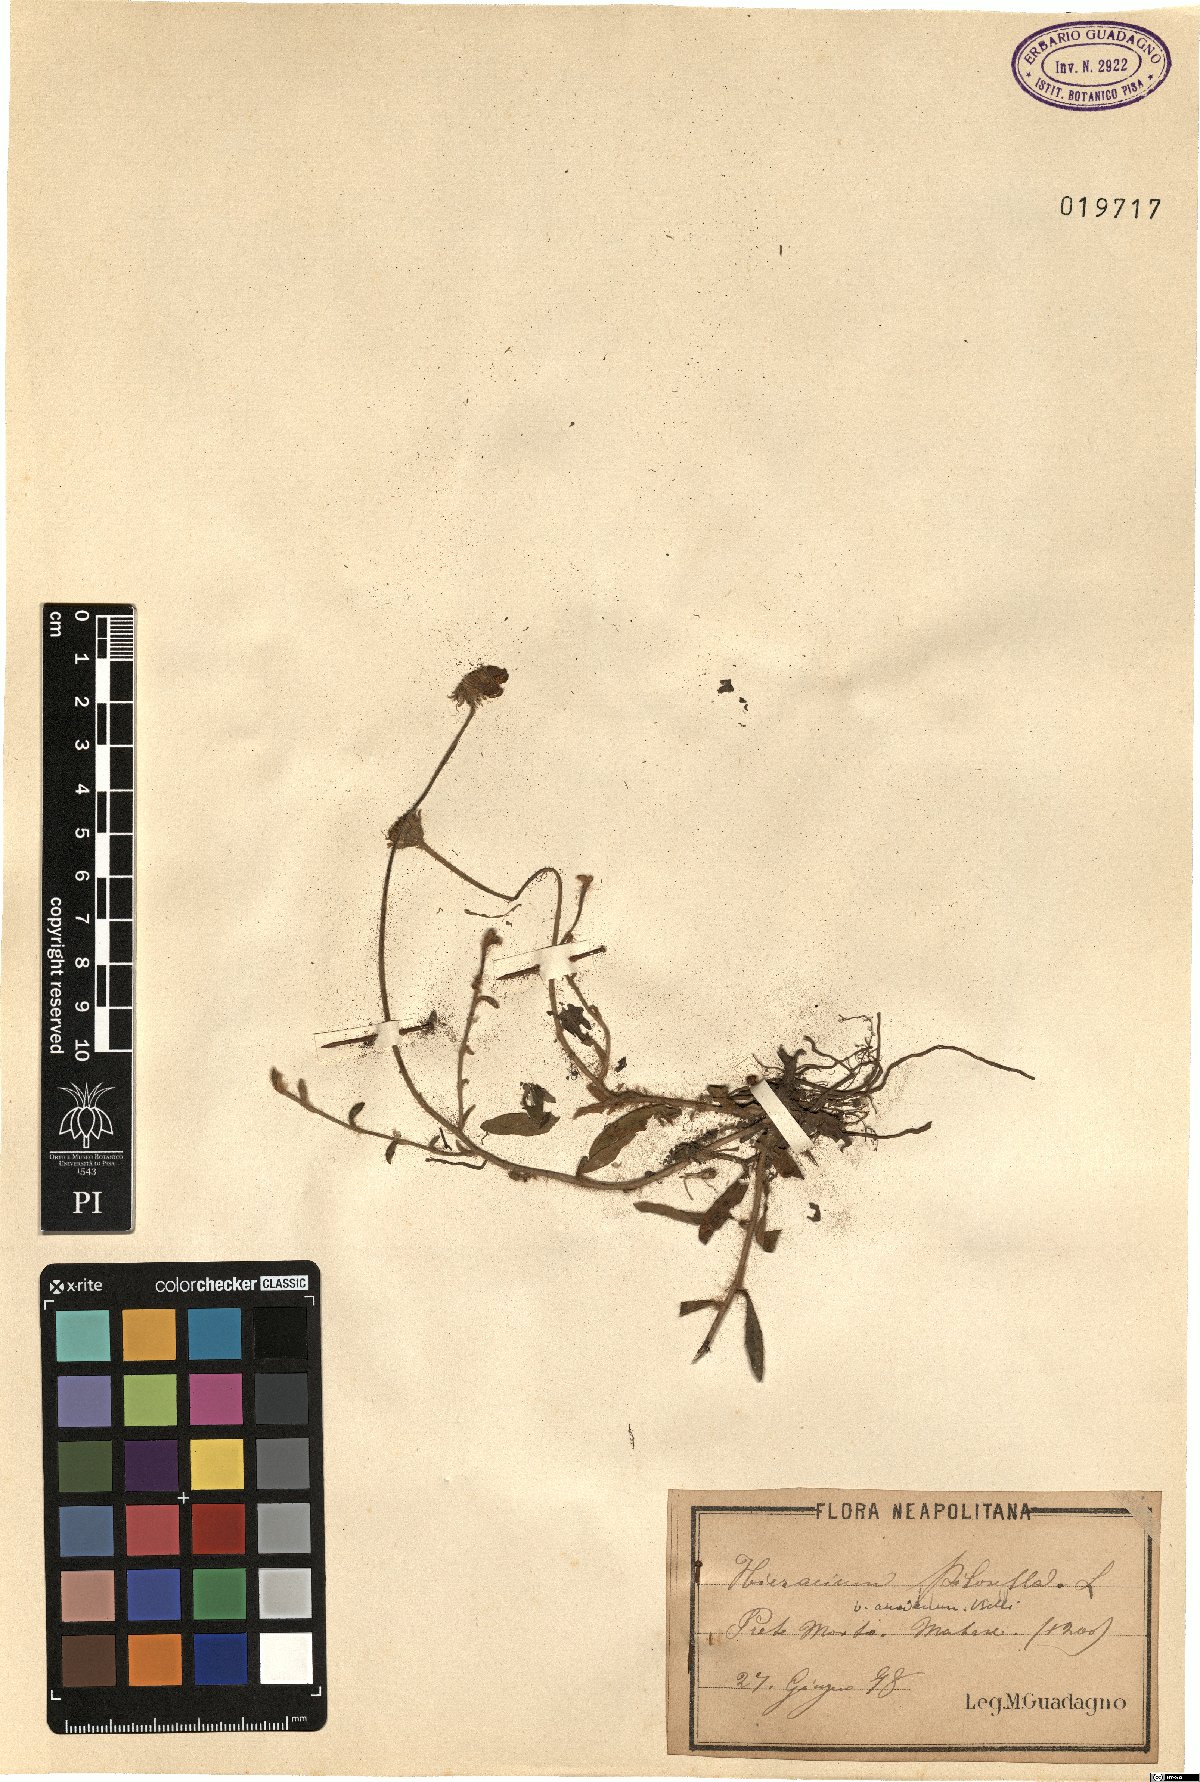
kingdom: Plantae
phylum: Tracheophyta
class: Magnoliopsida
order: Asterales
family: Asteraceae
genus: Pilosella
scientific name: Pilosella officinarum
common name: Mouse-ear hawkweed
